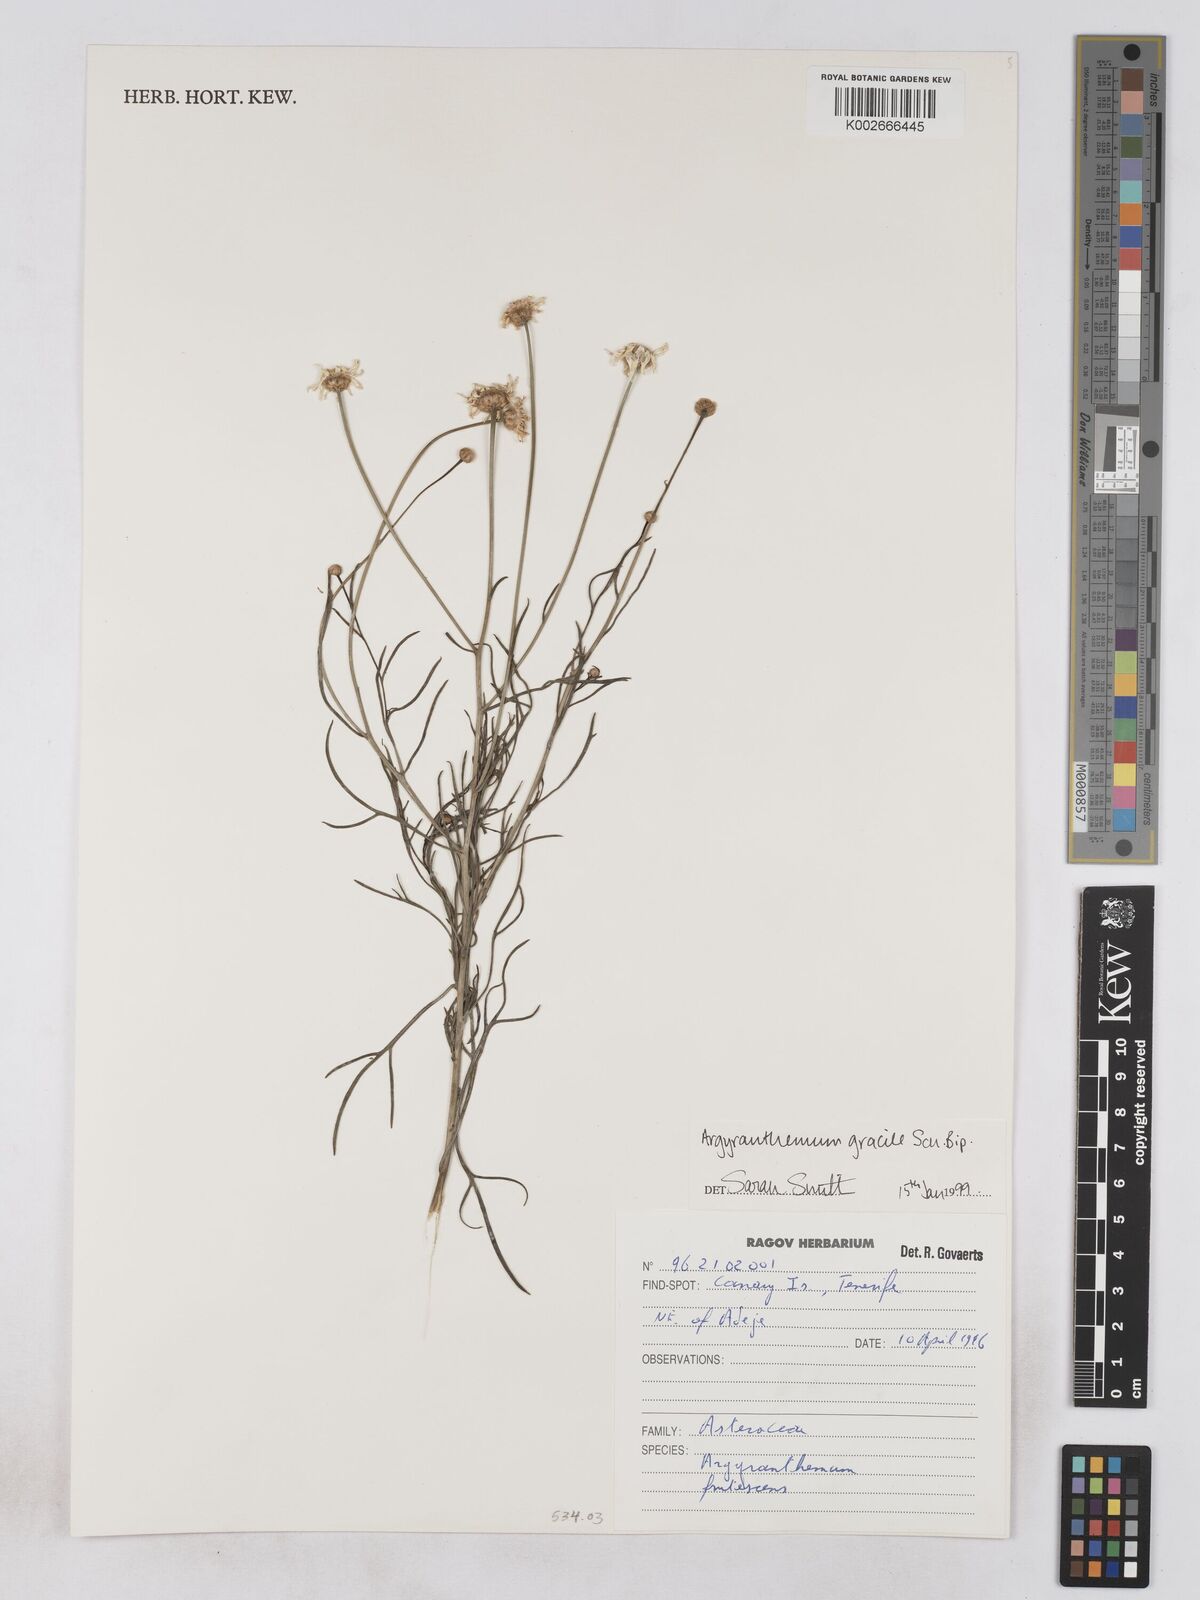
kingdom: Plantae
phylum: Tracheophyta
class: Magnoliopsida
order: Asterales
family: Asteraceae
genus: Argyranthemum
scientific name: Argyranthemum gracile
